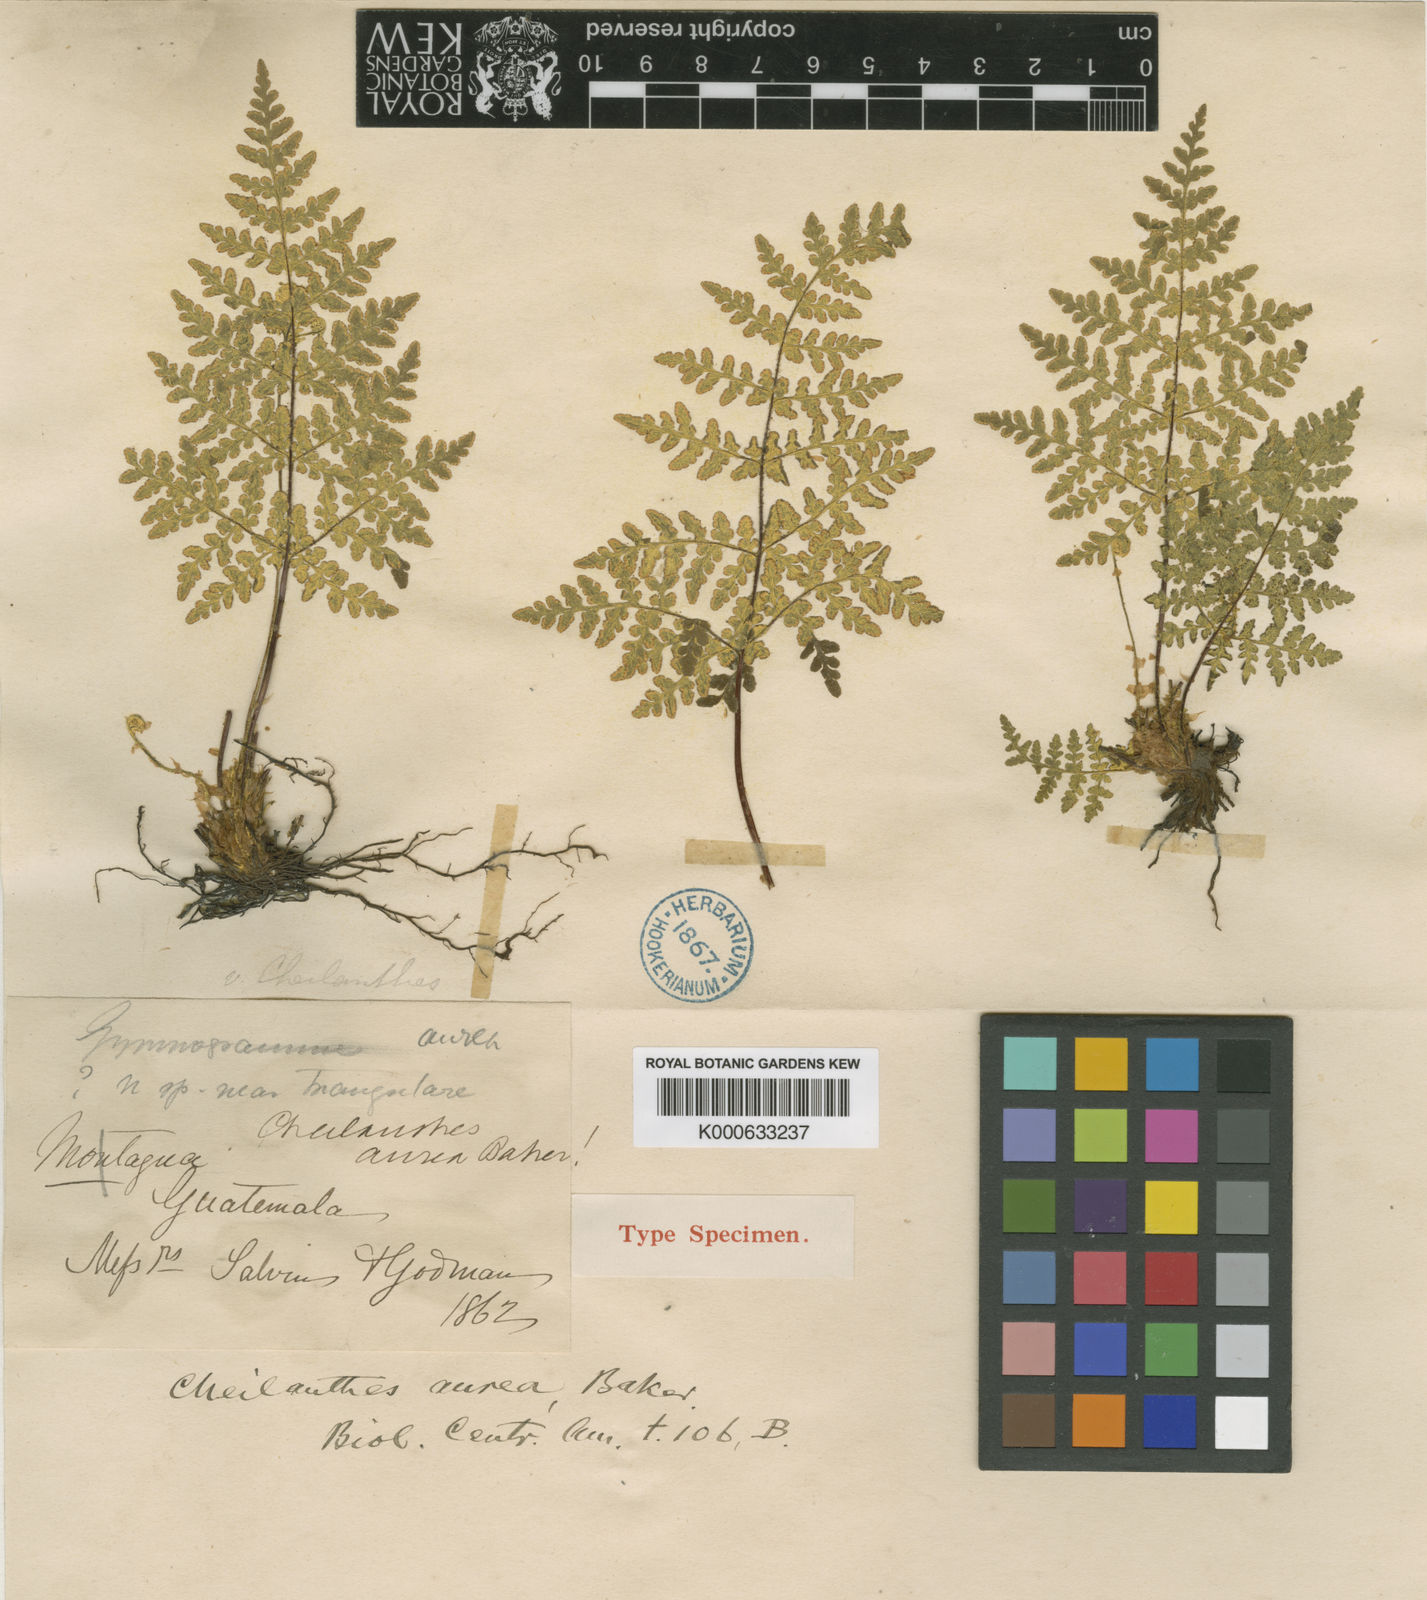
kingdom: Plantae
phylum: Tracheophyta
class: Polypodiopsida
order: Polypodiales
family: Pteridaceae
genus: Notholaena
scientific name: Notholaena aureolina
